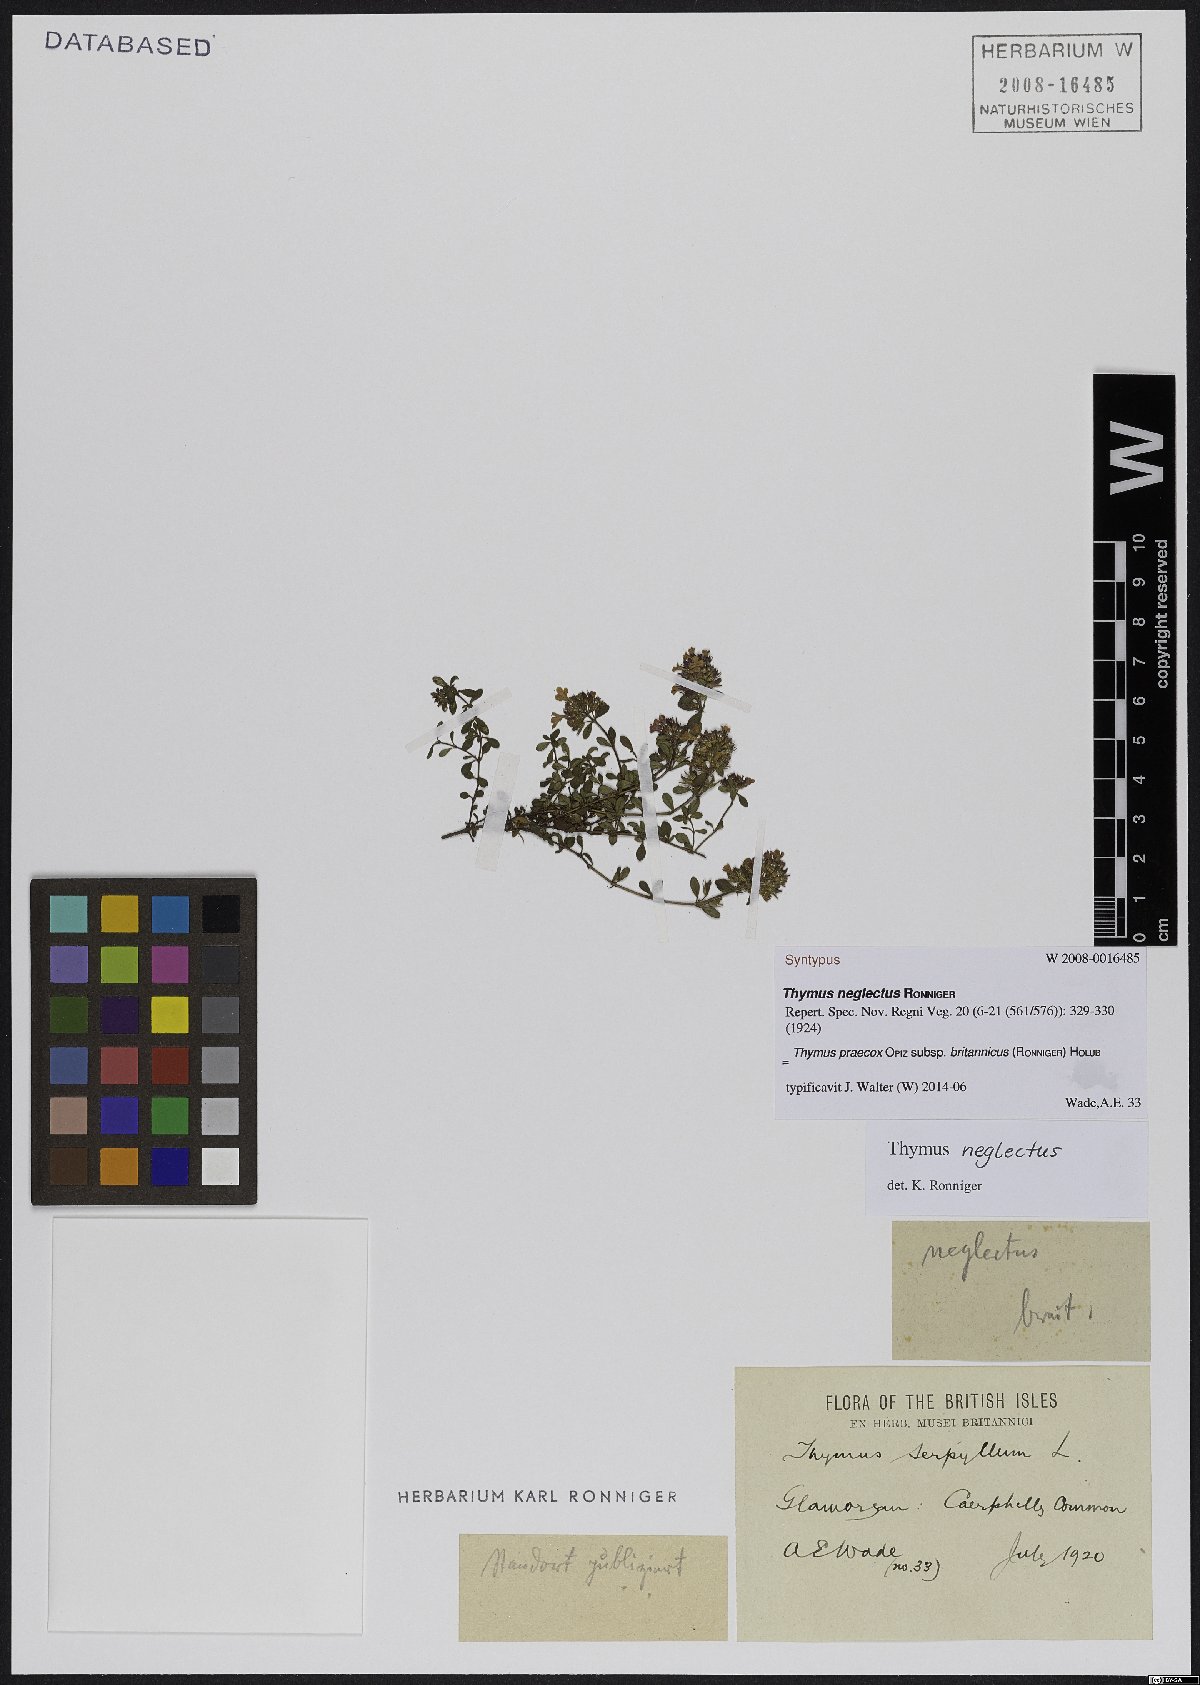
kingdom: Plantae
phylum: Tracheophyta
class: Magnoliopsida
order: Lamiales
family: Lamiaceae
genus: Thymus
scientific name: Thymus praecox
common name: Wild thyme
